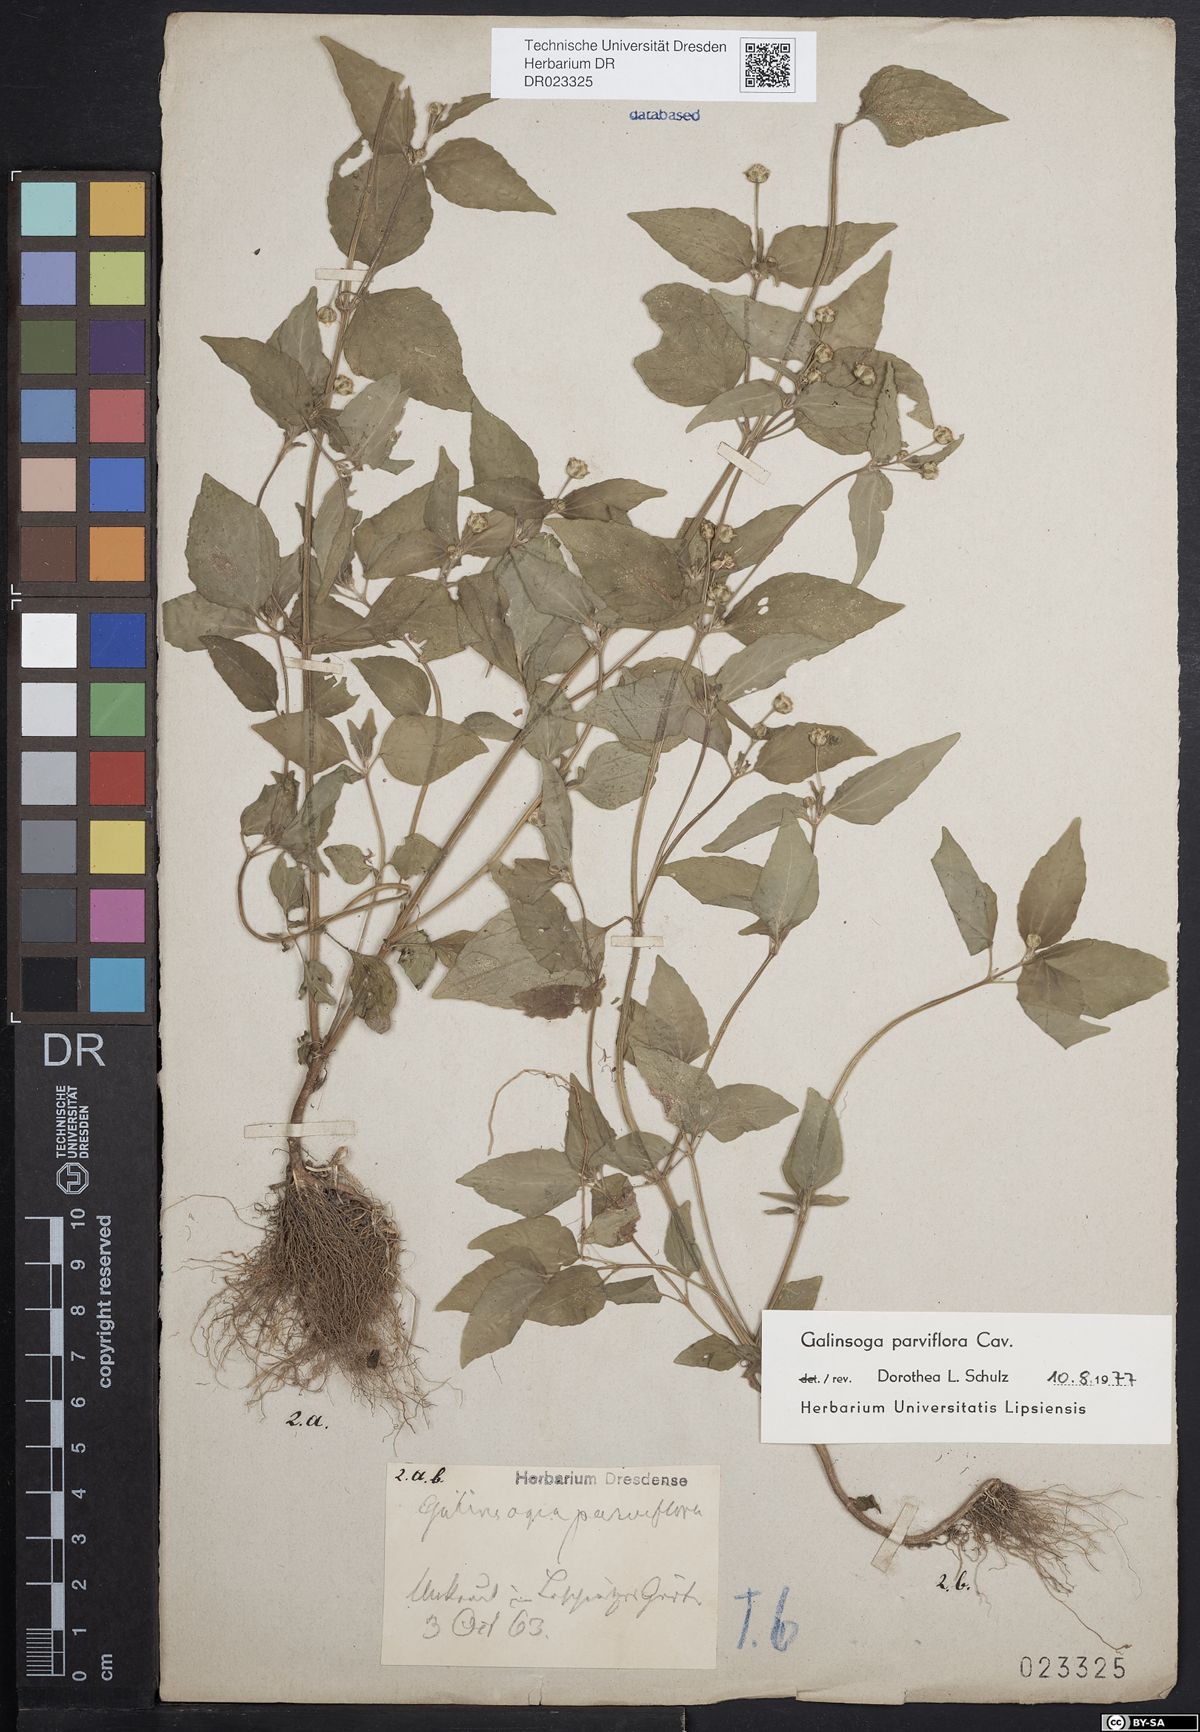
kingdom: Plantae
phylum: Tracheophyta
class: Magnoliopsida
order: Asterales
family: Asteraceae
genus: Galinsoga
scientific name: Galinsoga parviflora
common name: Gallant soldier
